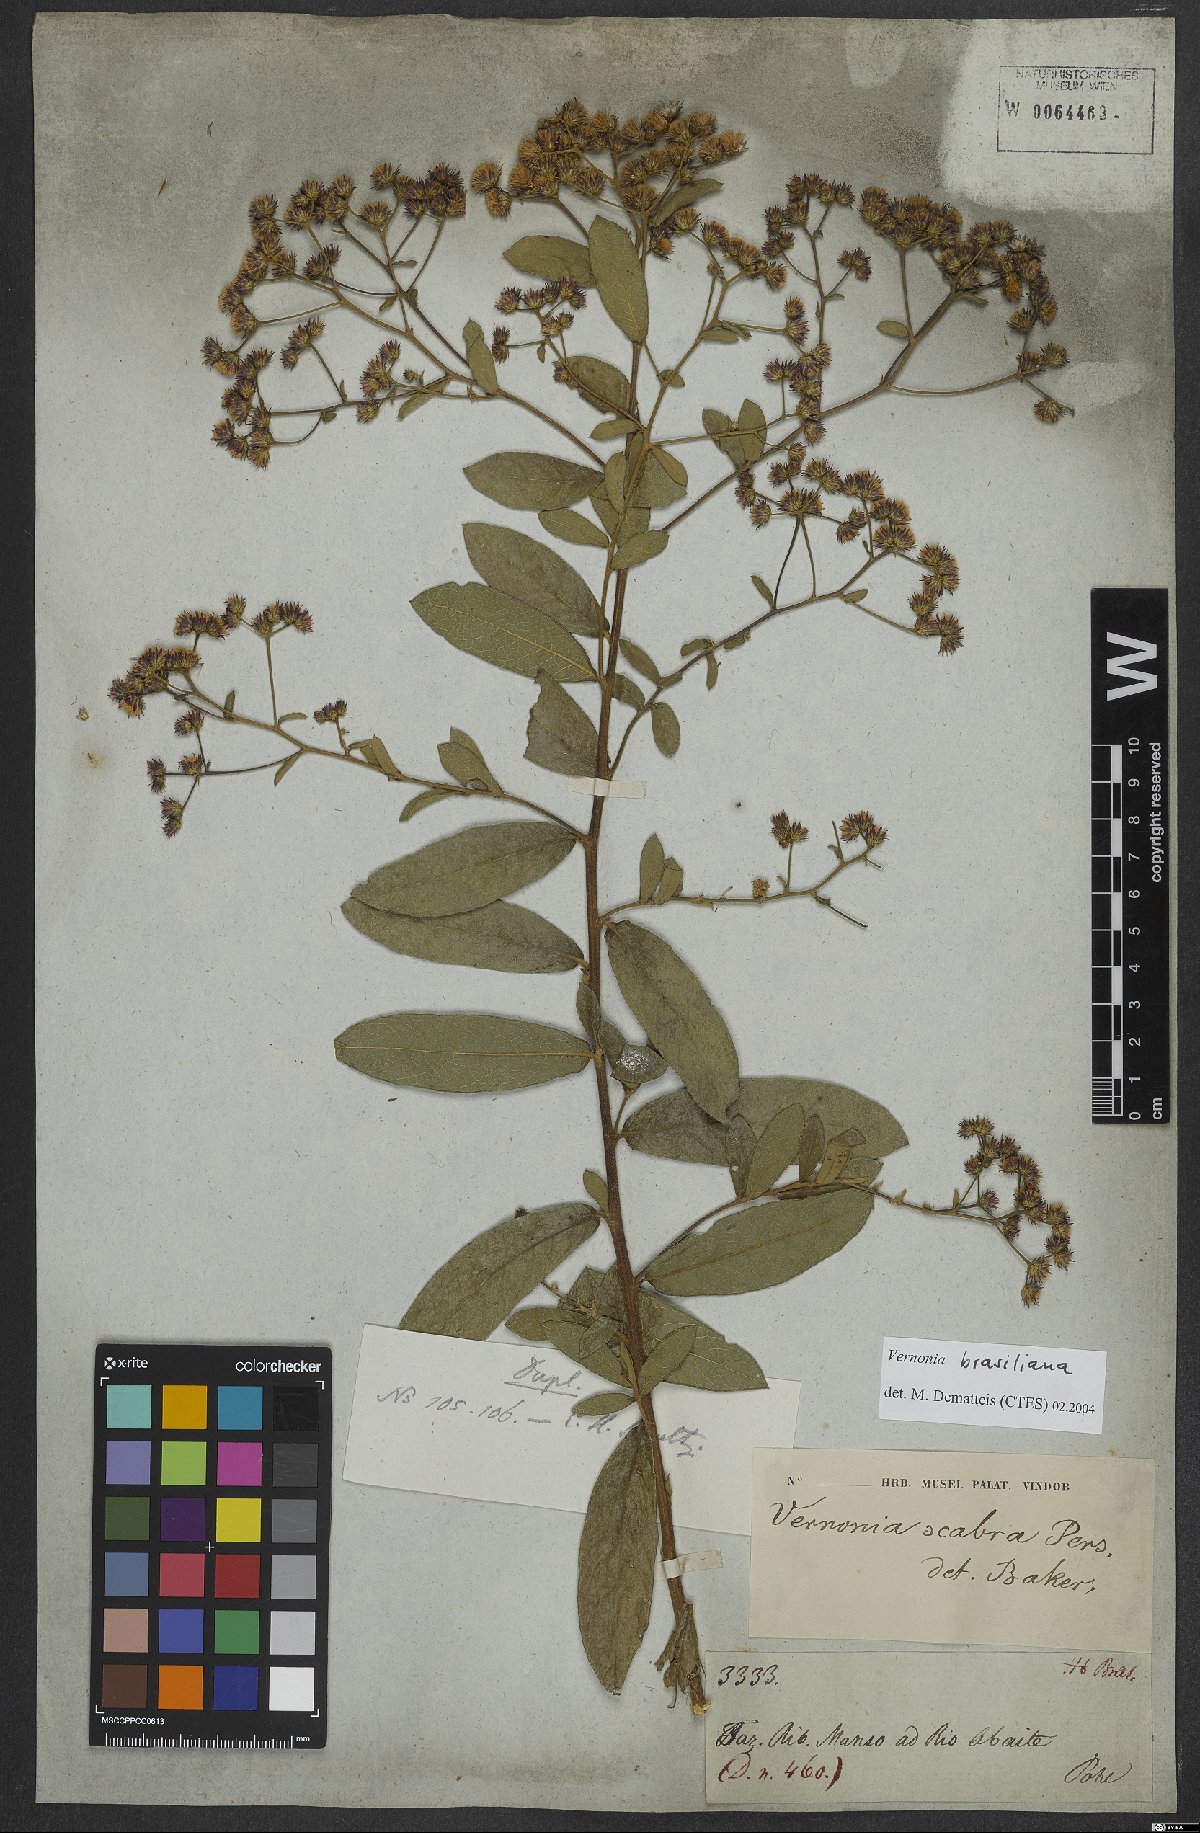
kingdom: Plantae
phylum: Tracheophyta
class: Magnoliopsida
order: Asterales
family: Asteraceae
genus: Vernonanthura
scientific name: Vernonanthura brasiliana
